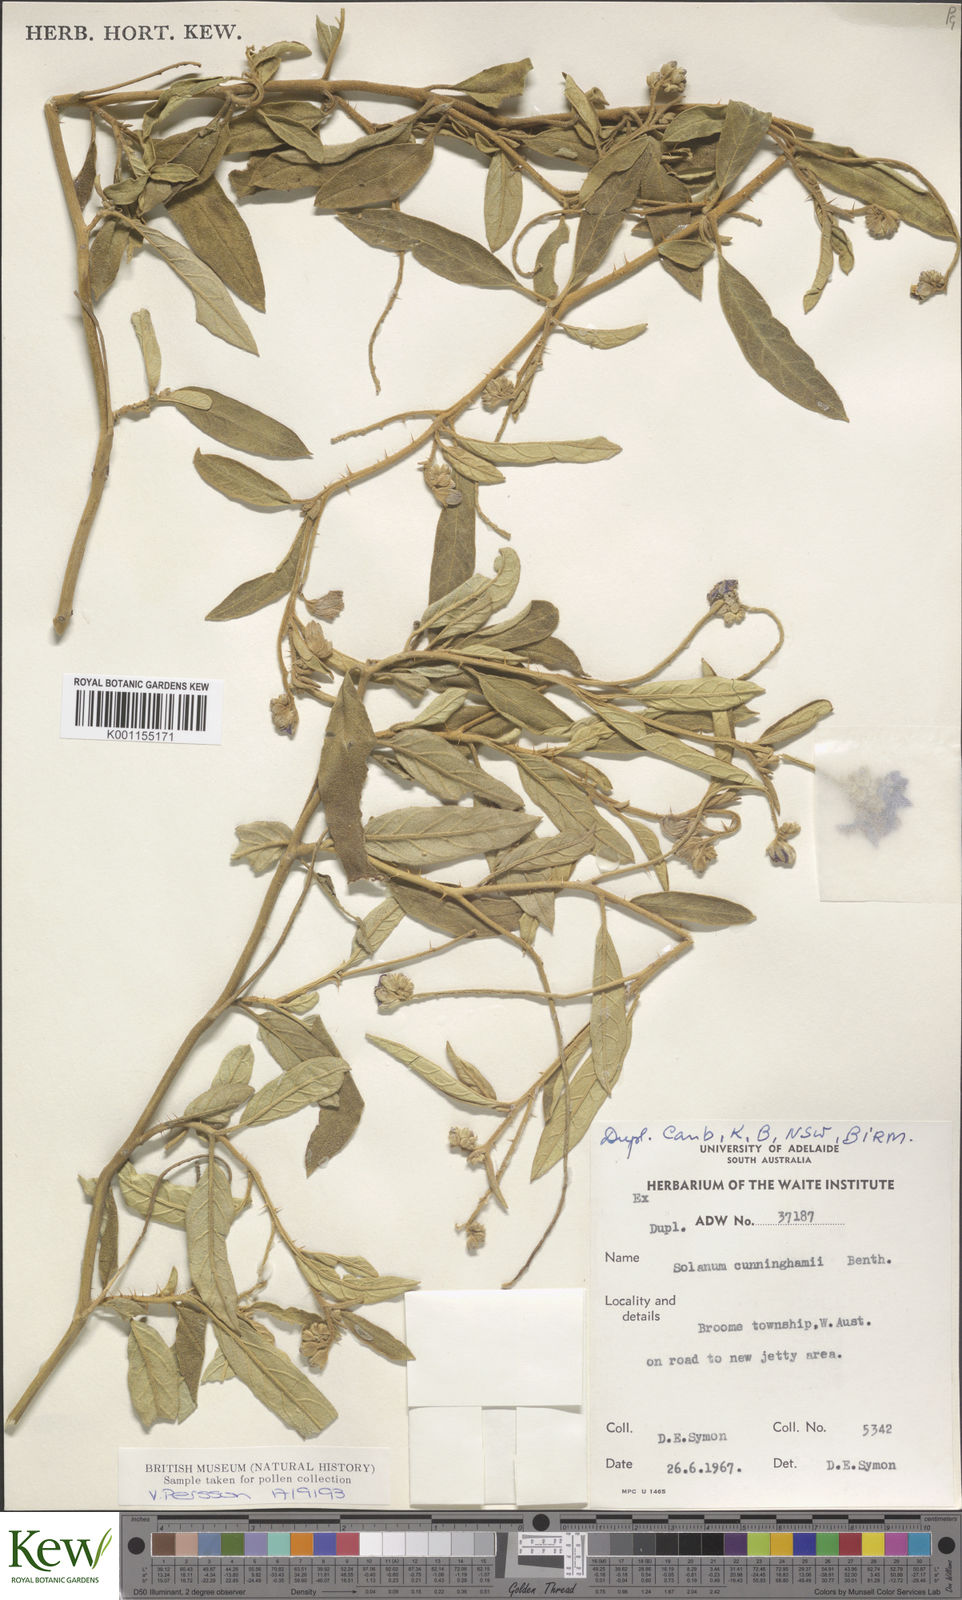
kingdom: Plantae
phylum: Tracheophyta
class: Magnoliopsida
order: Solanales
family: Solanaceae
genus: Solanum
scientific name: Solanum cunninghamii
